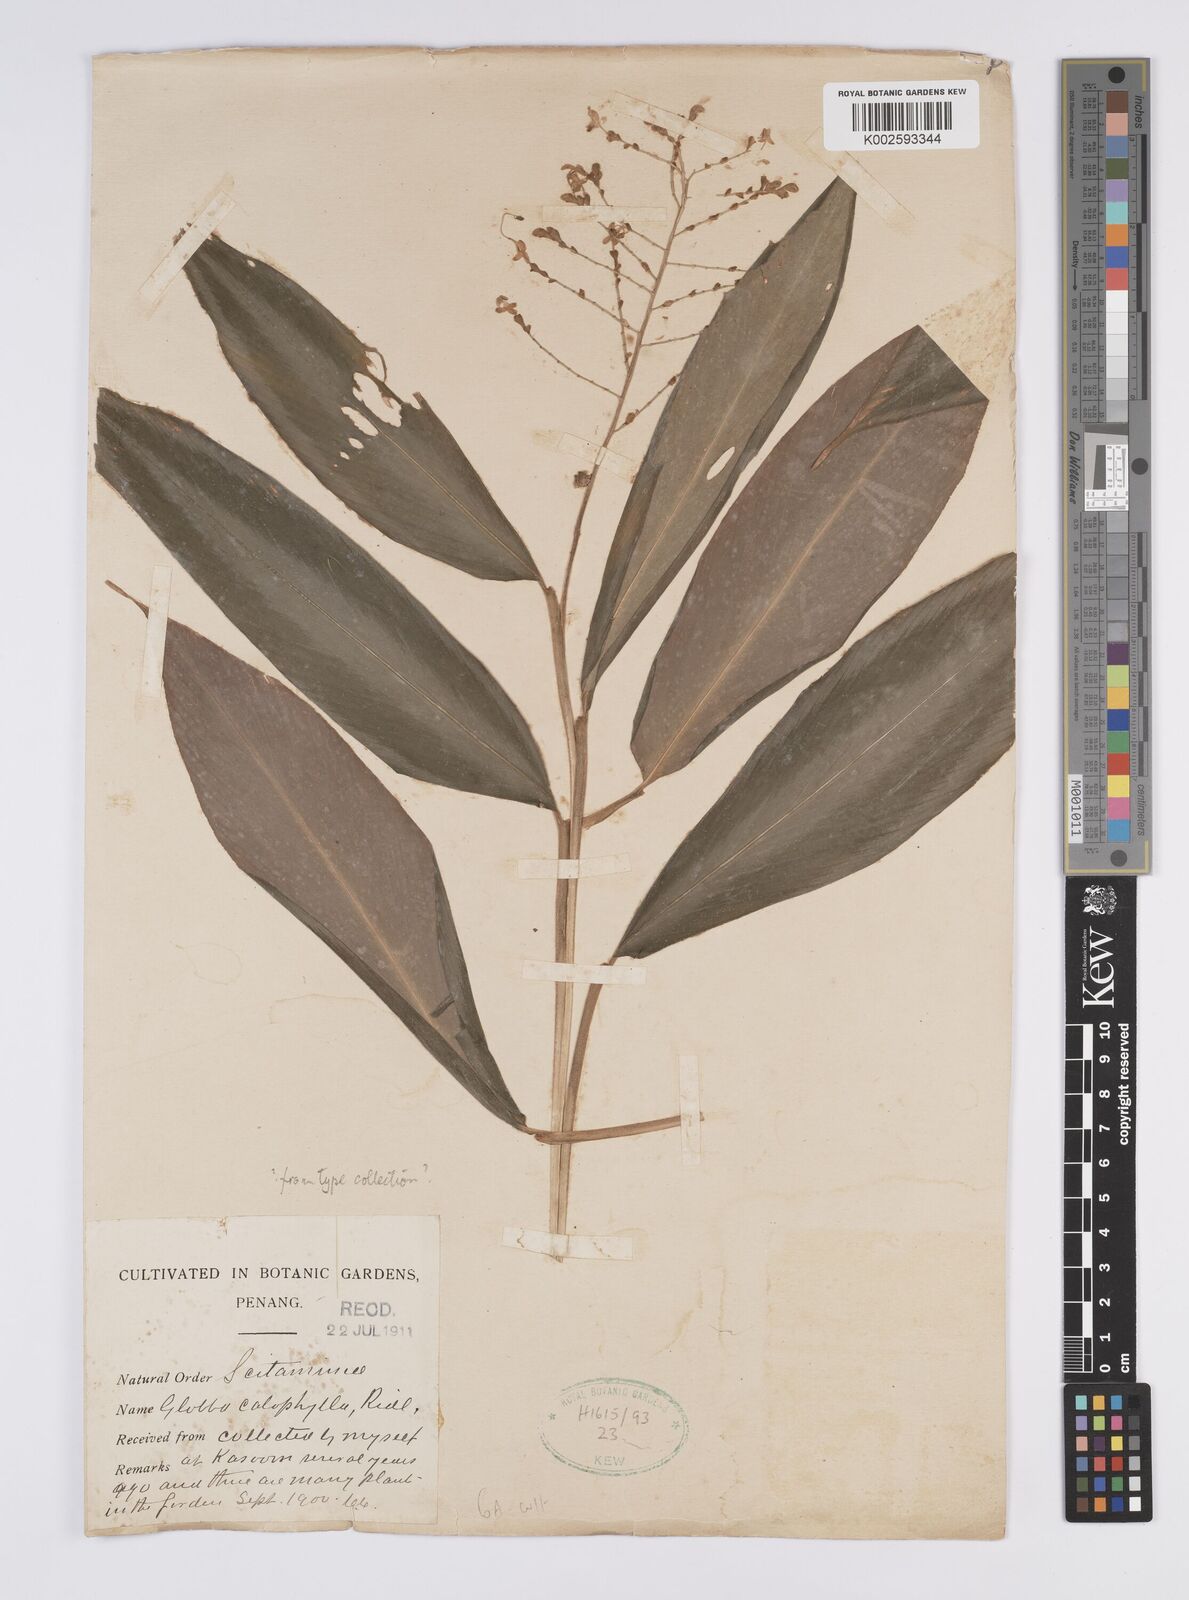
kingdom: Plantae
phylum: Tracheophyta
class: Liliopsida
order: Zingiberales
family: Zingiberaceae
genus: Globba
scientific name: Globba pendula
